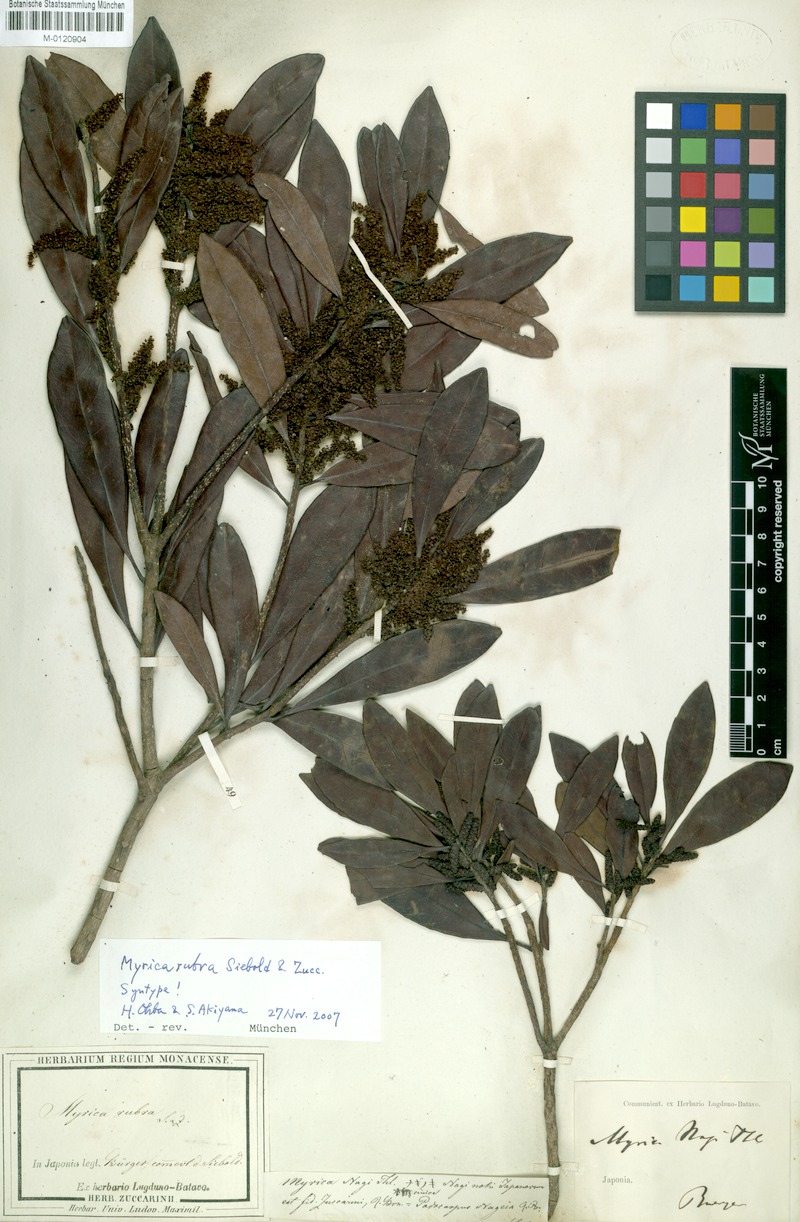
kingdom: Plantae
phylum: Tracheophyta
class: Magnoliopsida
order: Fagales
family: Myricaceae
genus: Morella
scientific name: Morella rubra
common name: Red bayberry
